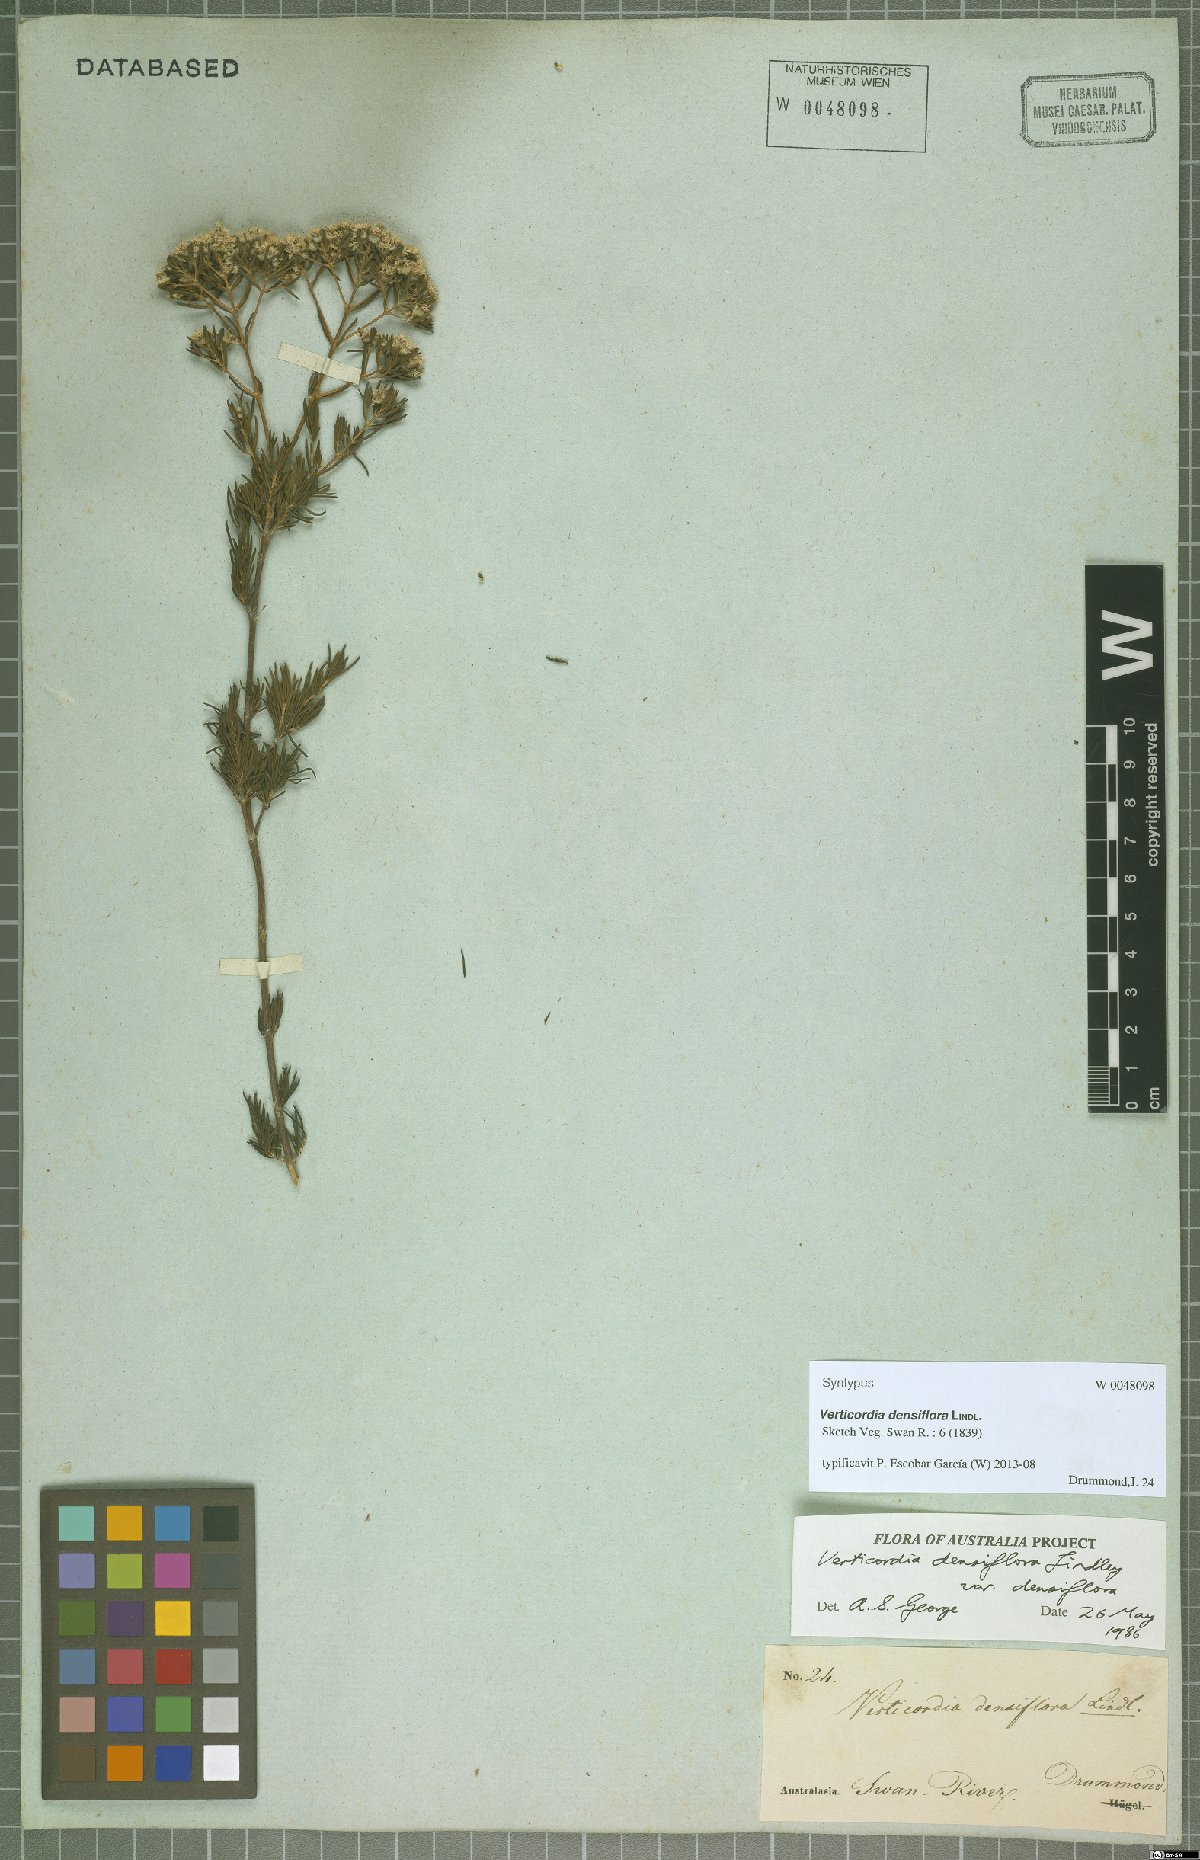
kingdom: Plantae
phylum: Tracheophyta
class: Magnoliopsida
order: Myrtales
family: Myrtaceae
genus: Verticordia
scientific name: Verticordia densiflora
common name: Compact feather-flower
